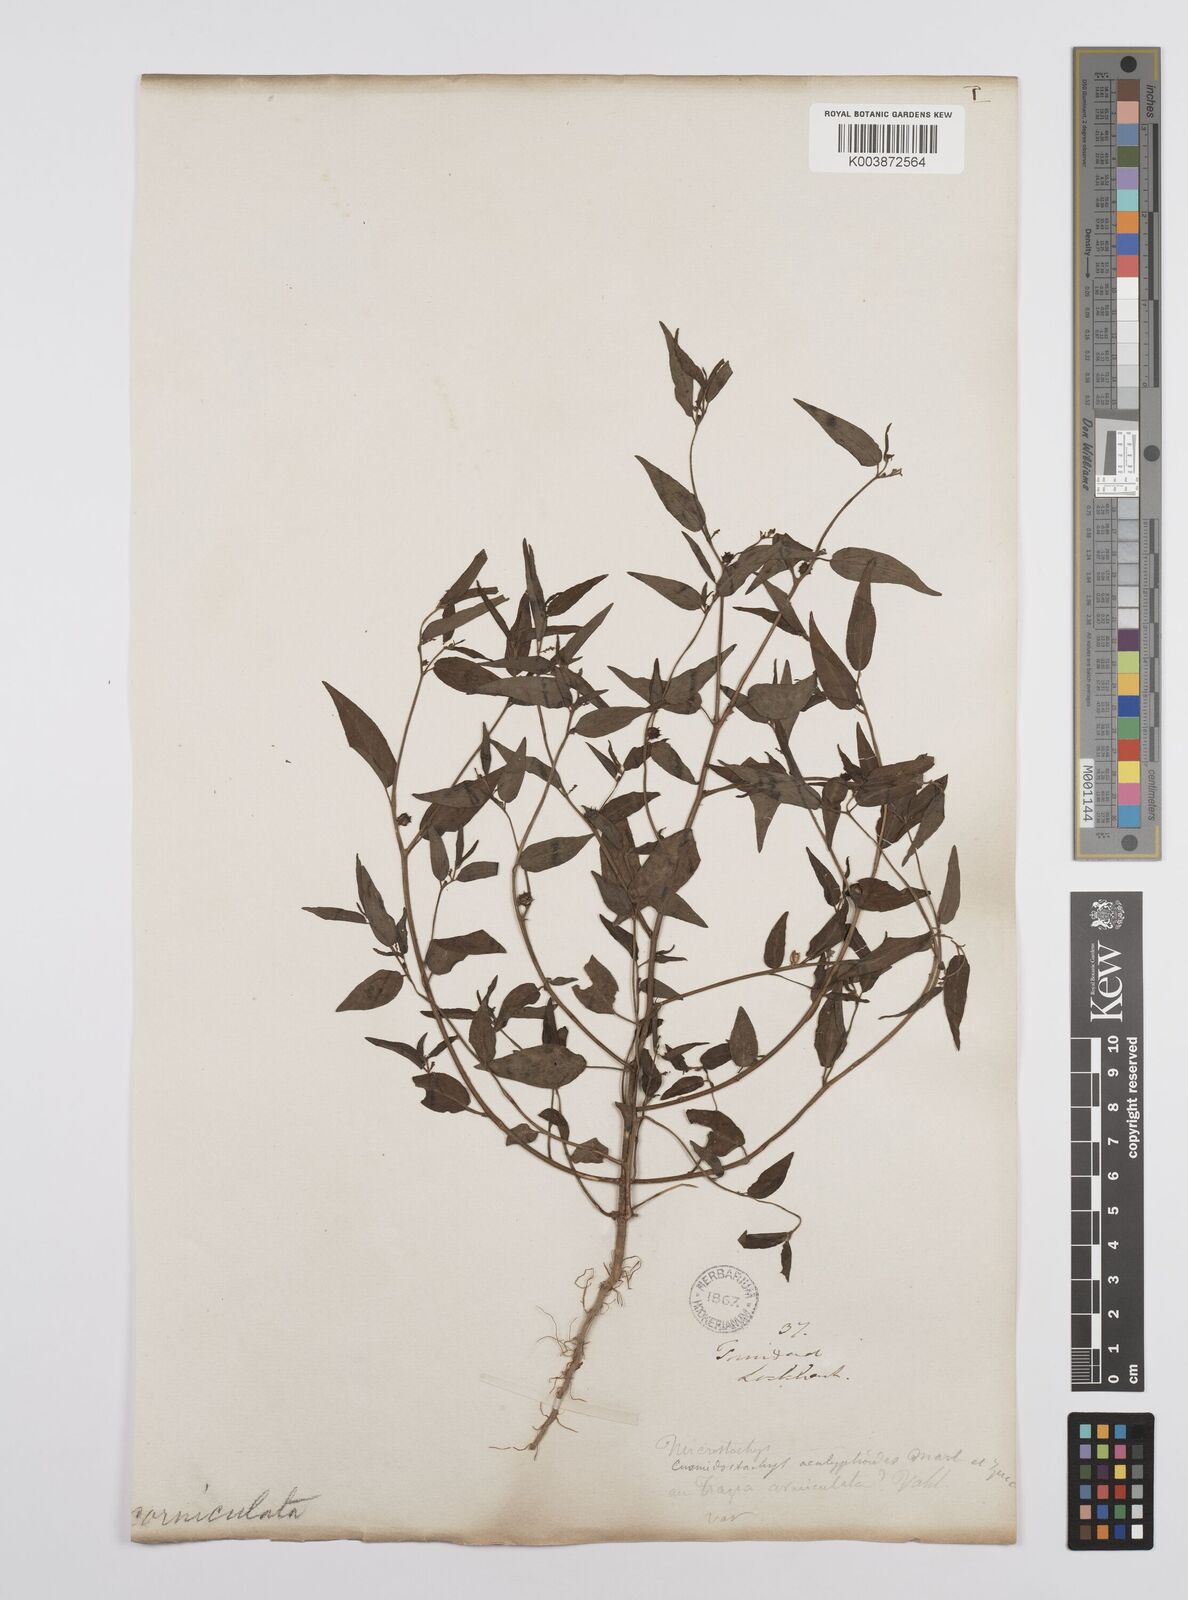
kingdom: Plantae
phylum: Tracheophyta
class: Magnoliopsida
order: Malpighiales
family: Euphorbiaceae
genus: Microstachys
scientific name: Microstachys corniculata
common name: Hato tejas
